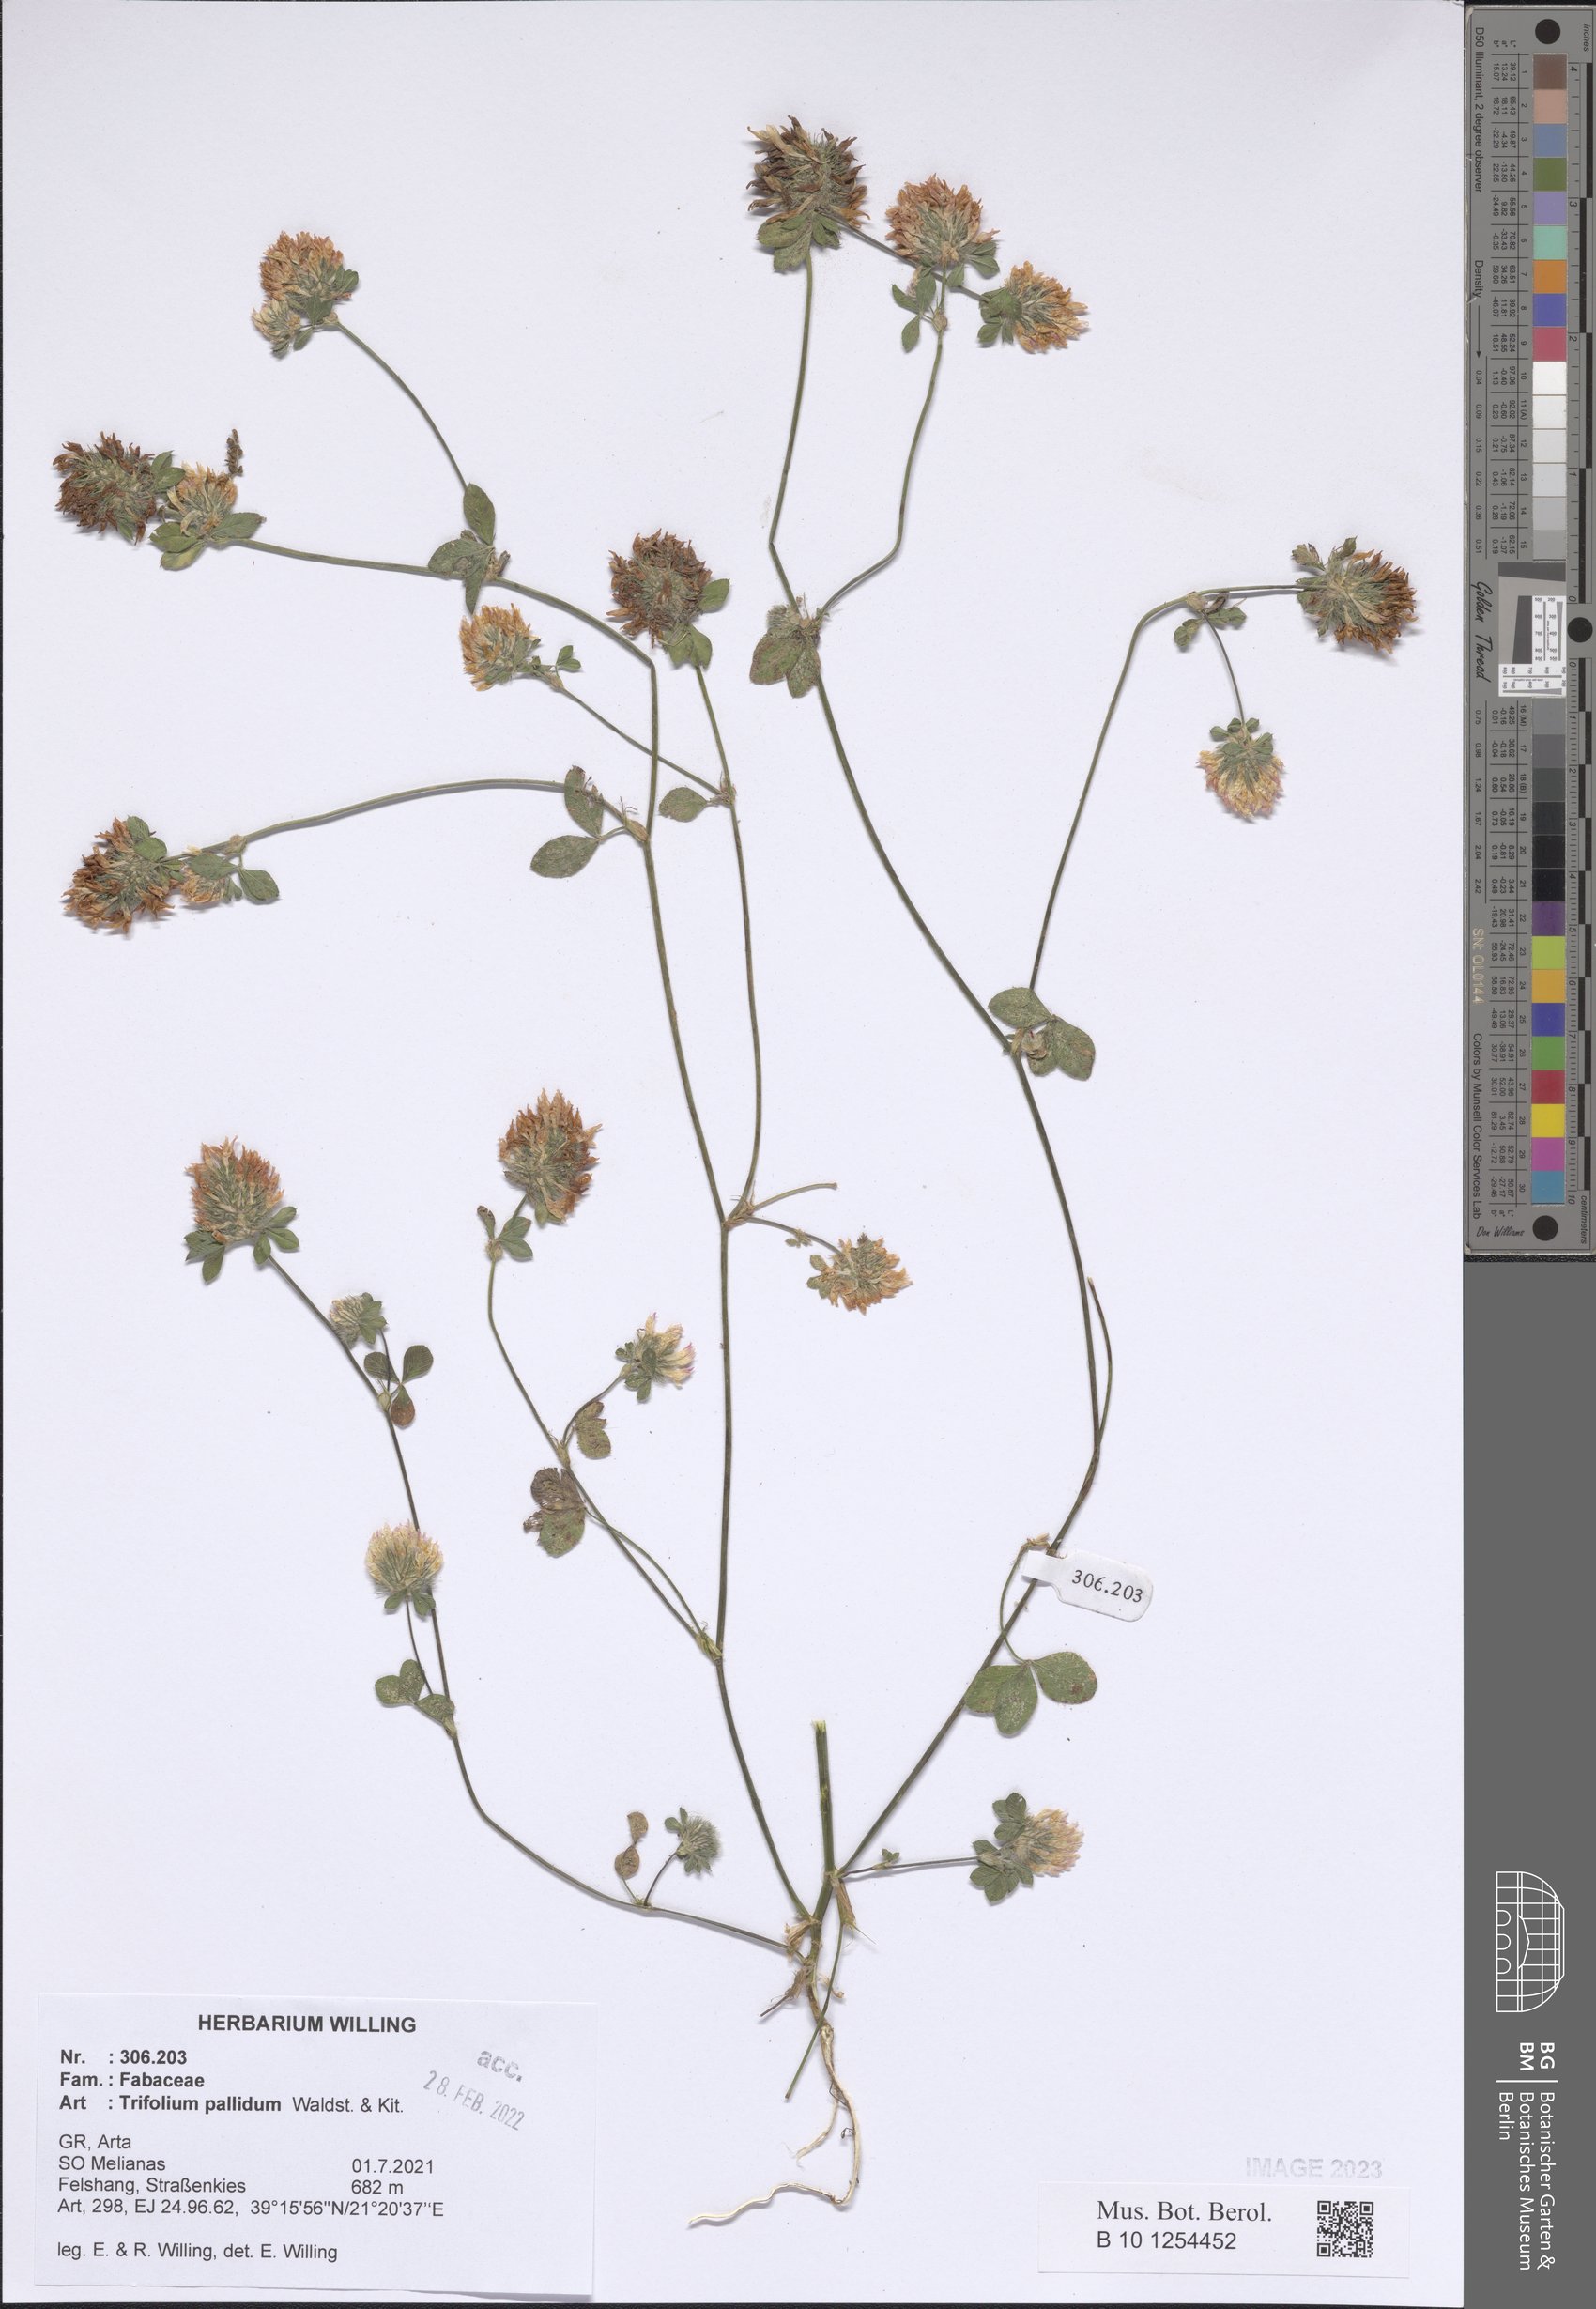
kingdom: Plantae
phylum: Tracheophyta
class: Magnoliopsida
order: Fabales
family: Fabaceae
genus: Trifolium
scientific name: Trifolium pallidum
